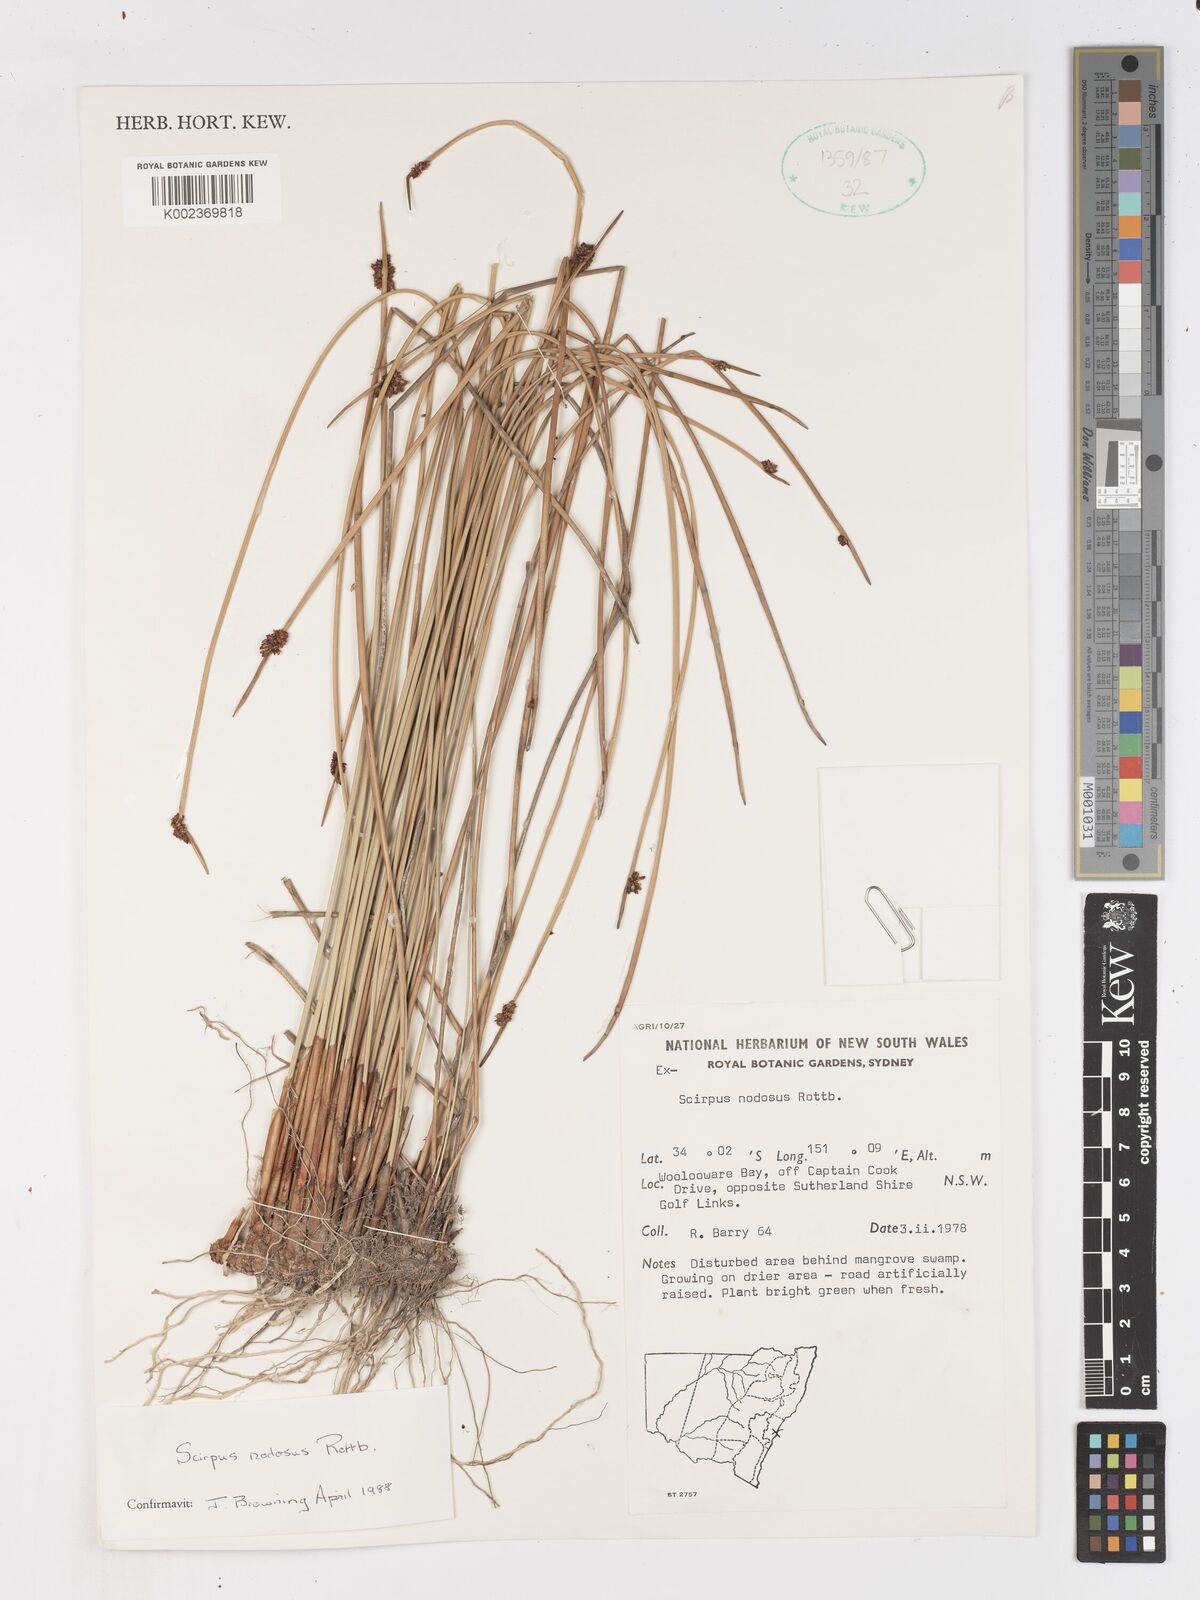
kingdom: Plantae
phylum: Tracheophyta
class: Liliopsida
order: Poales
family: Cyperaceae
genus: Ficinia
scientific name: Ficinia nodosa
